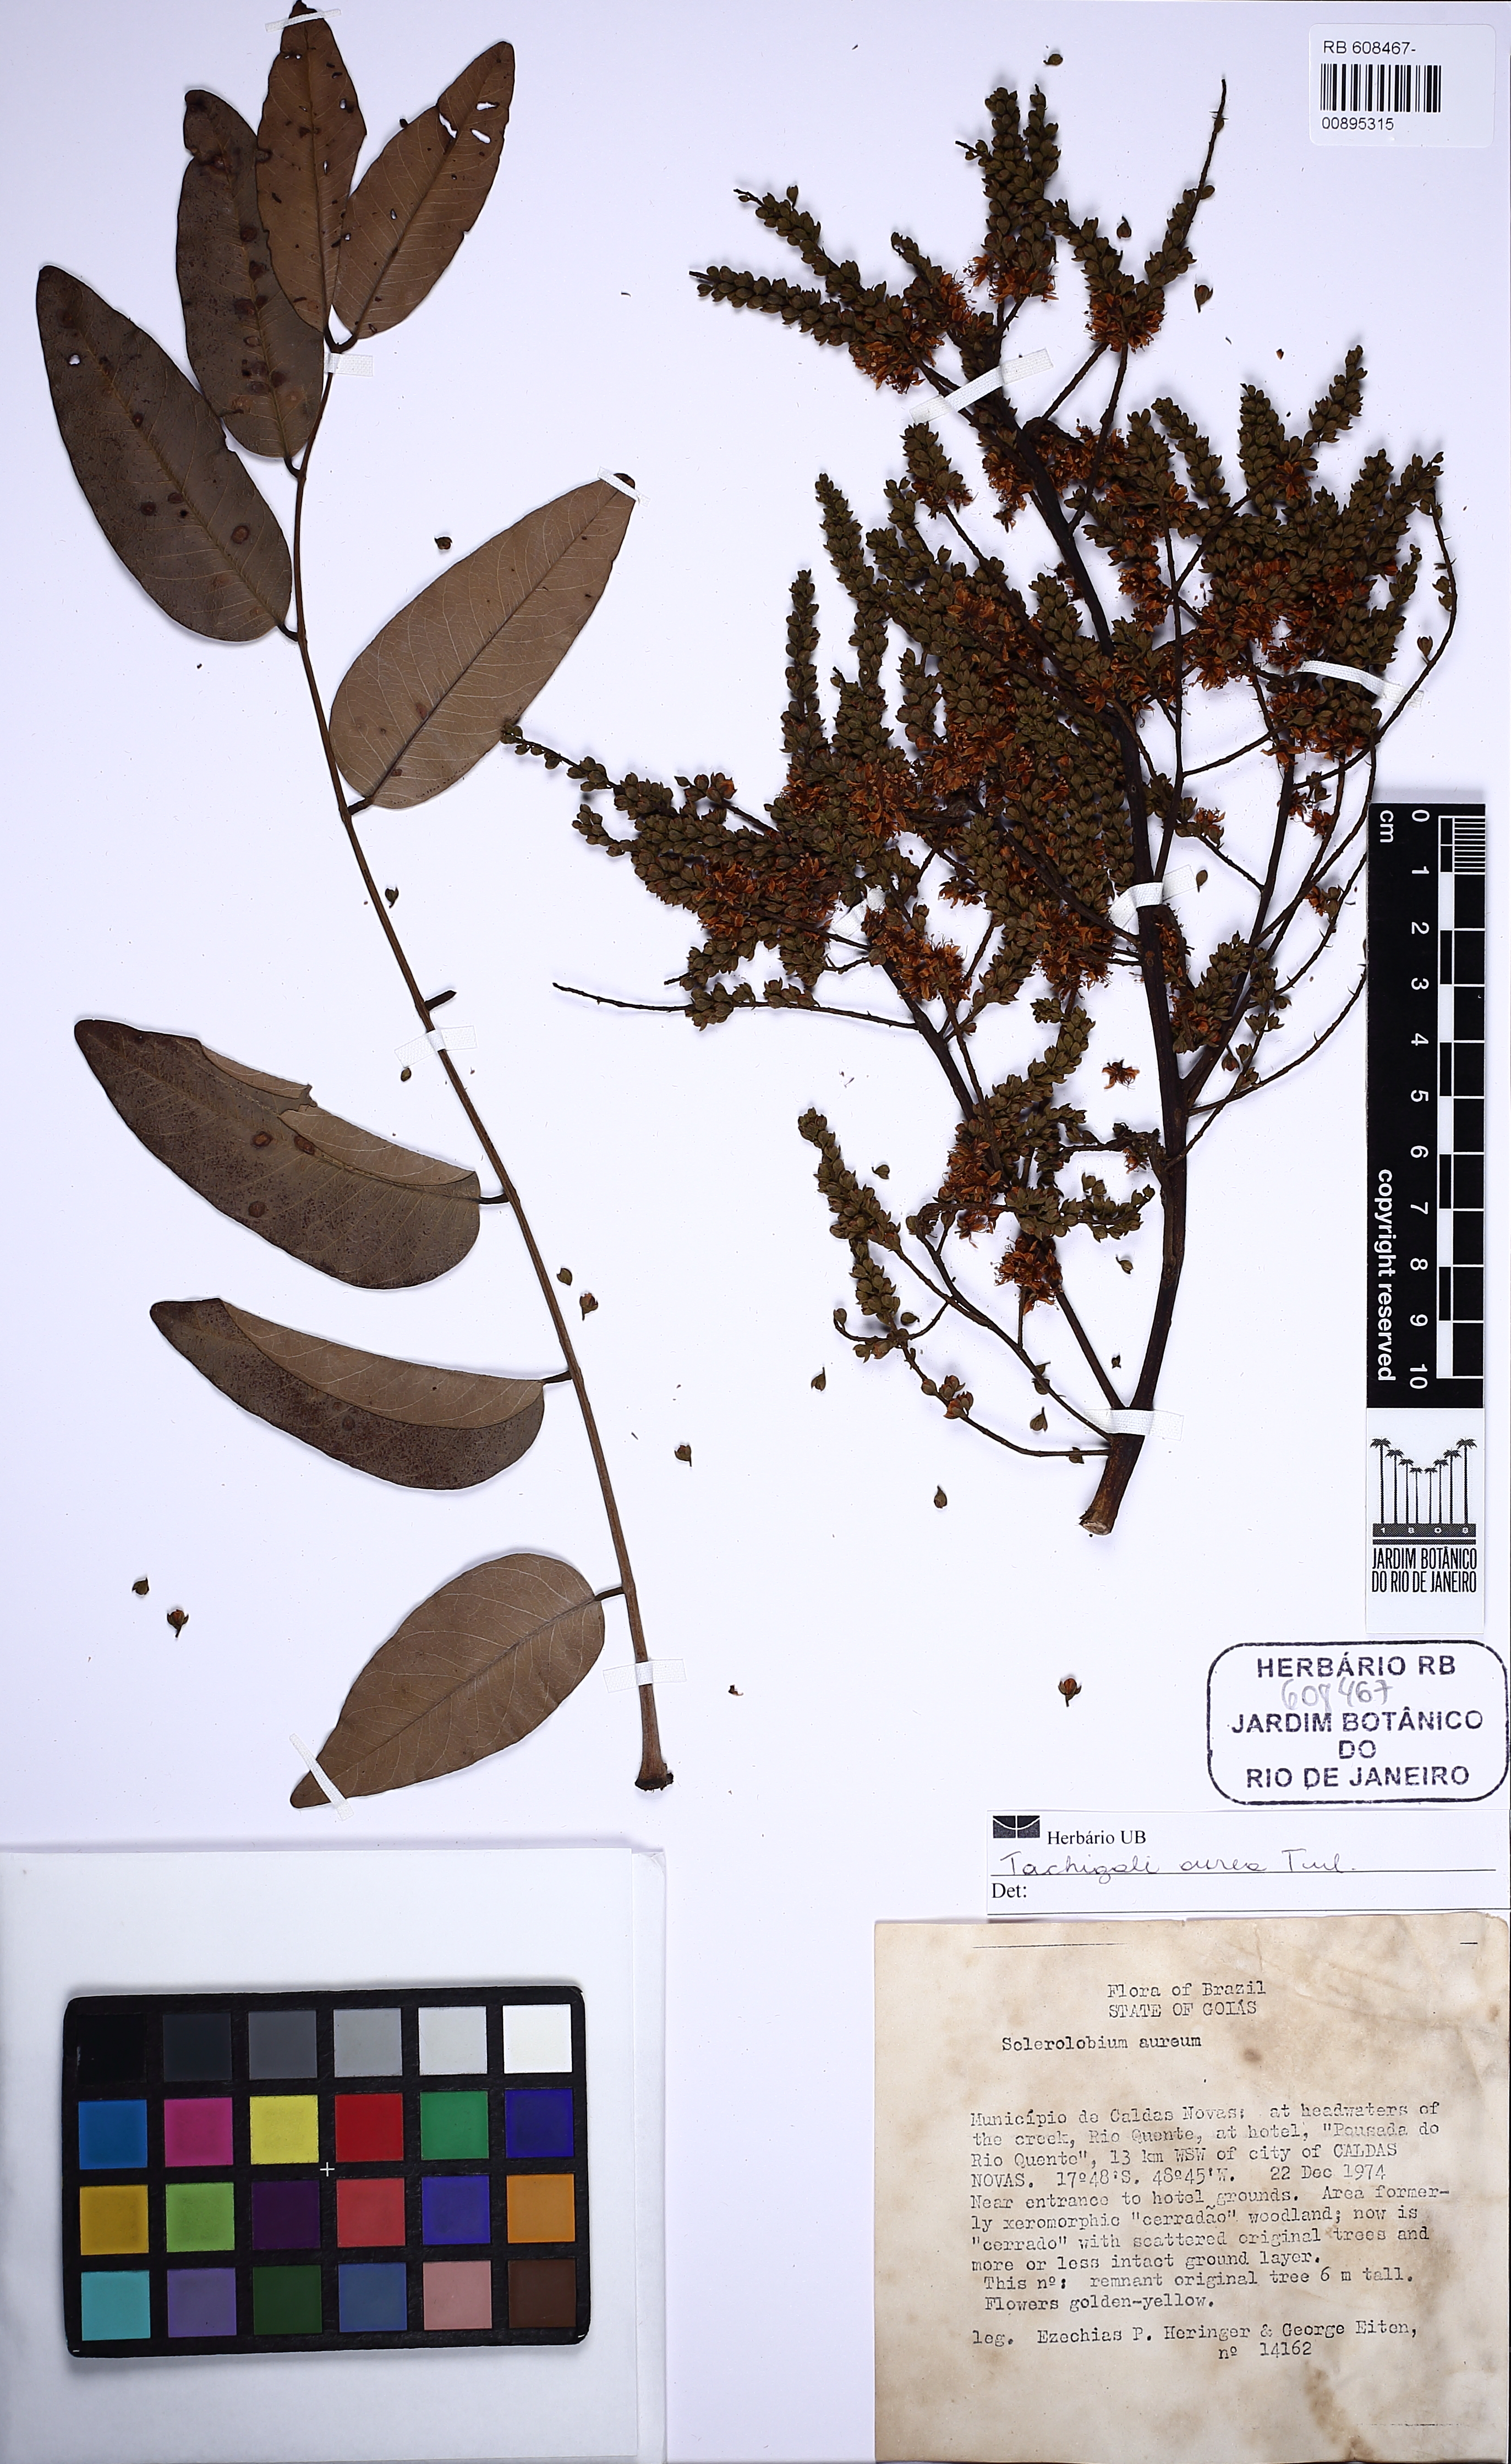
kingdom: Plantae
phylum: Tracheophyta
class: Magnoliopsida
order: Fabales
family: Fabaceae
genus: Tachigali
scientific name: Tachigali aurea
